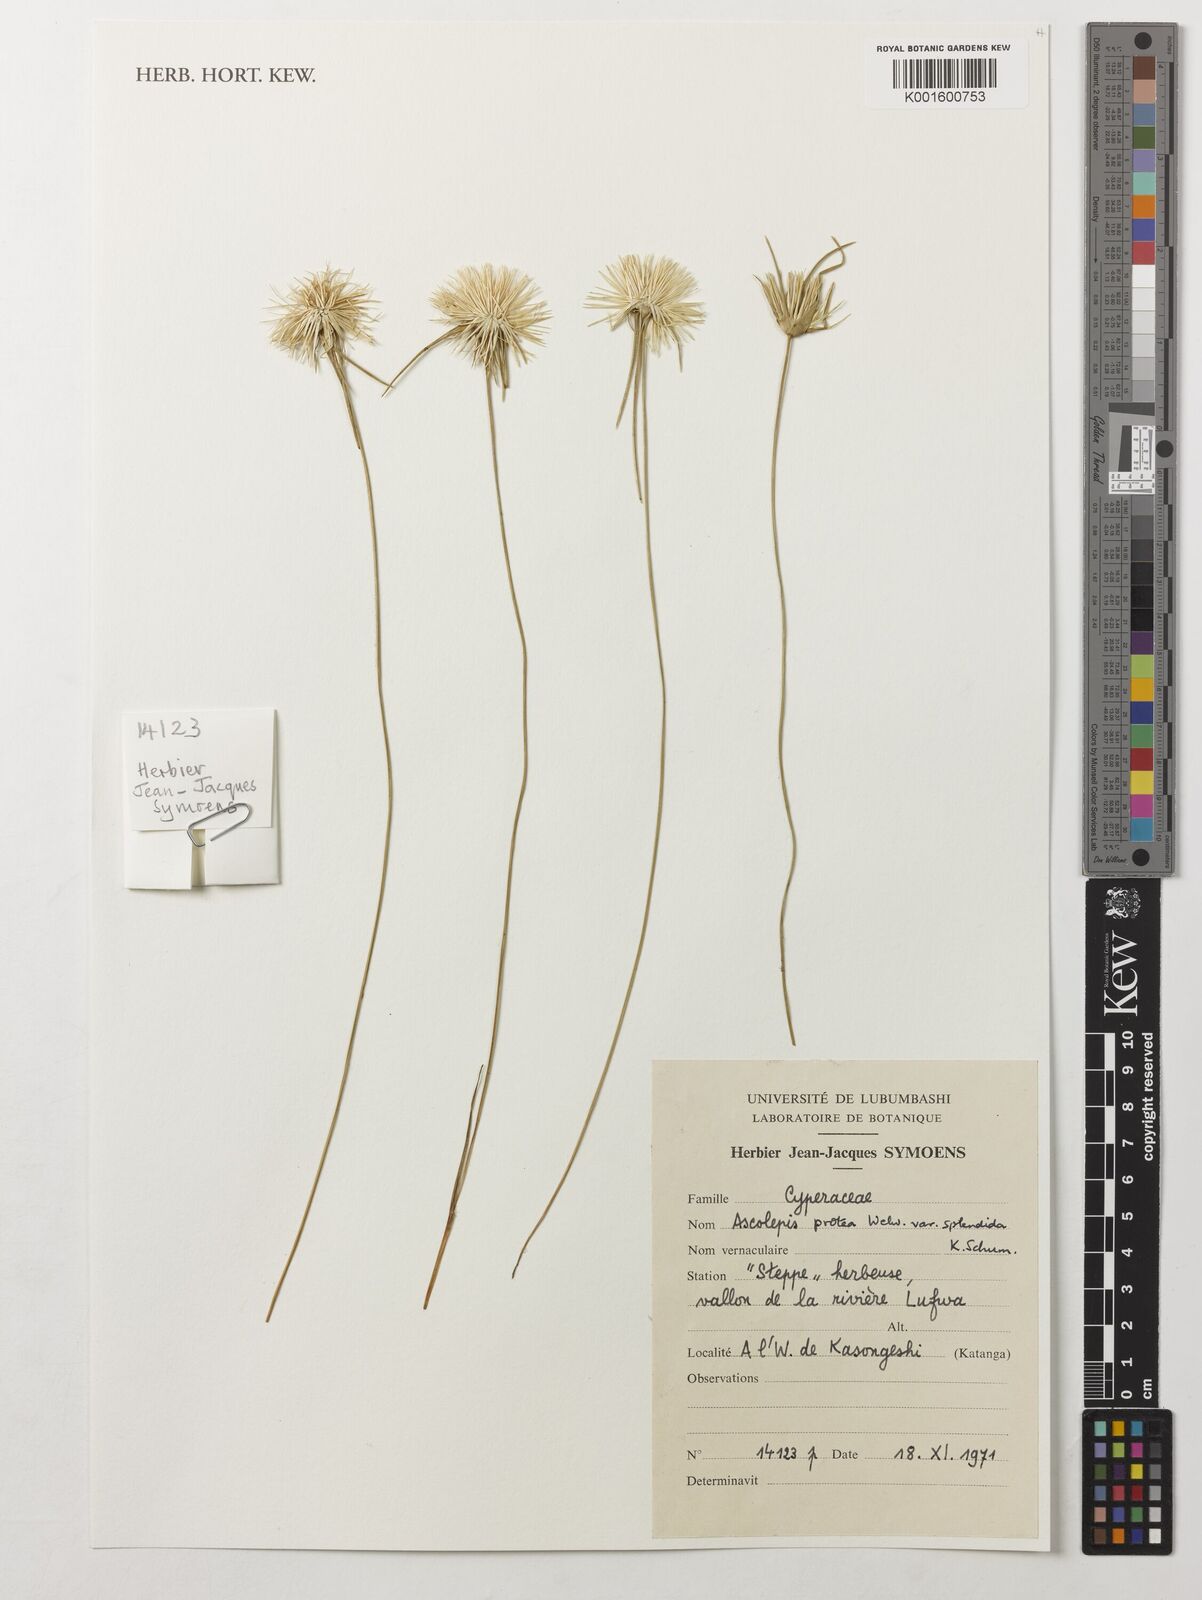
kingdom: Plantae
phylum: Tracheophyta
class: Liliopsida
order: Poales
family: Cyperaceae
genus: Cyperus
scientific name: Cyperus proteus
